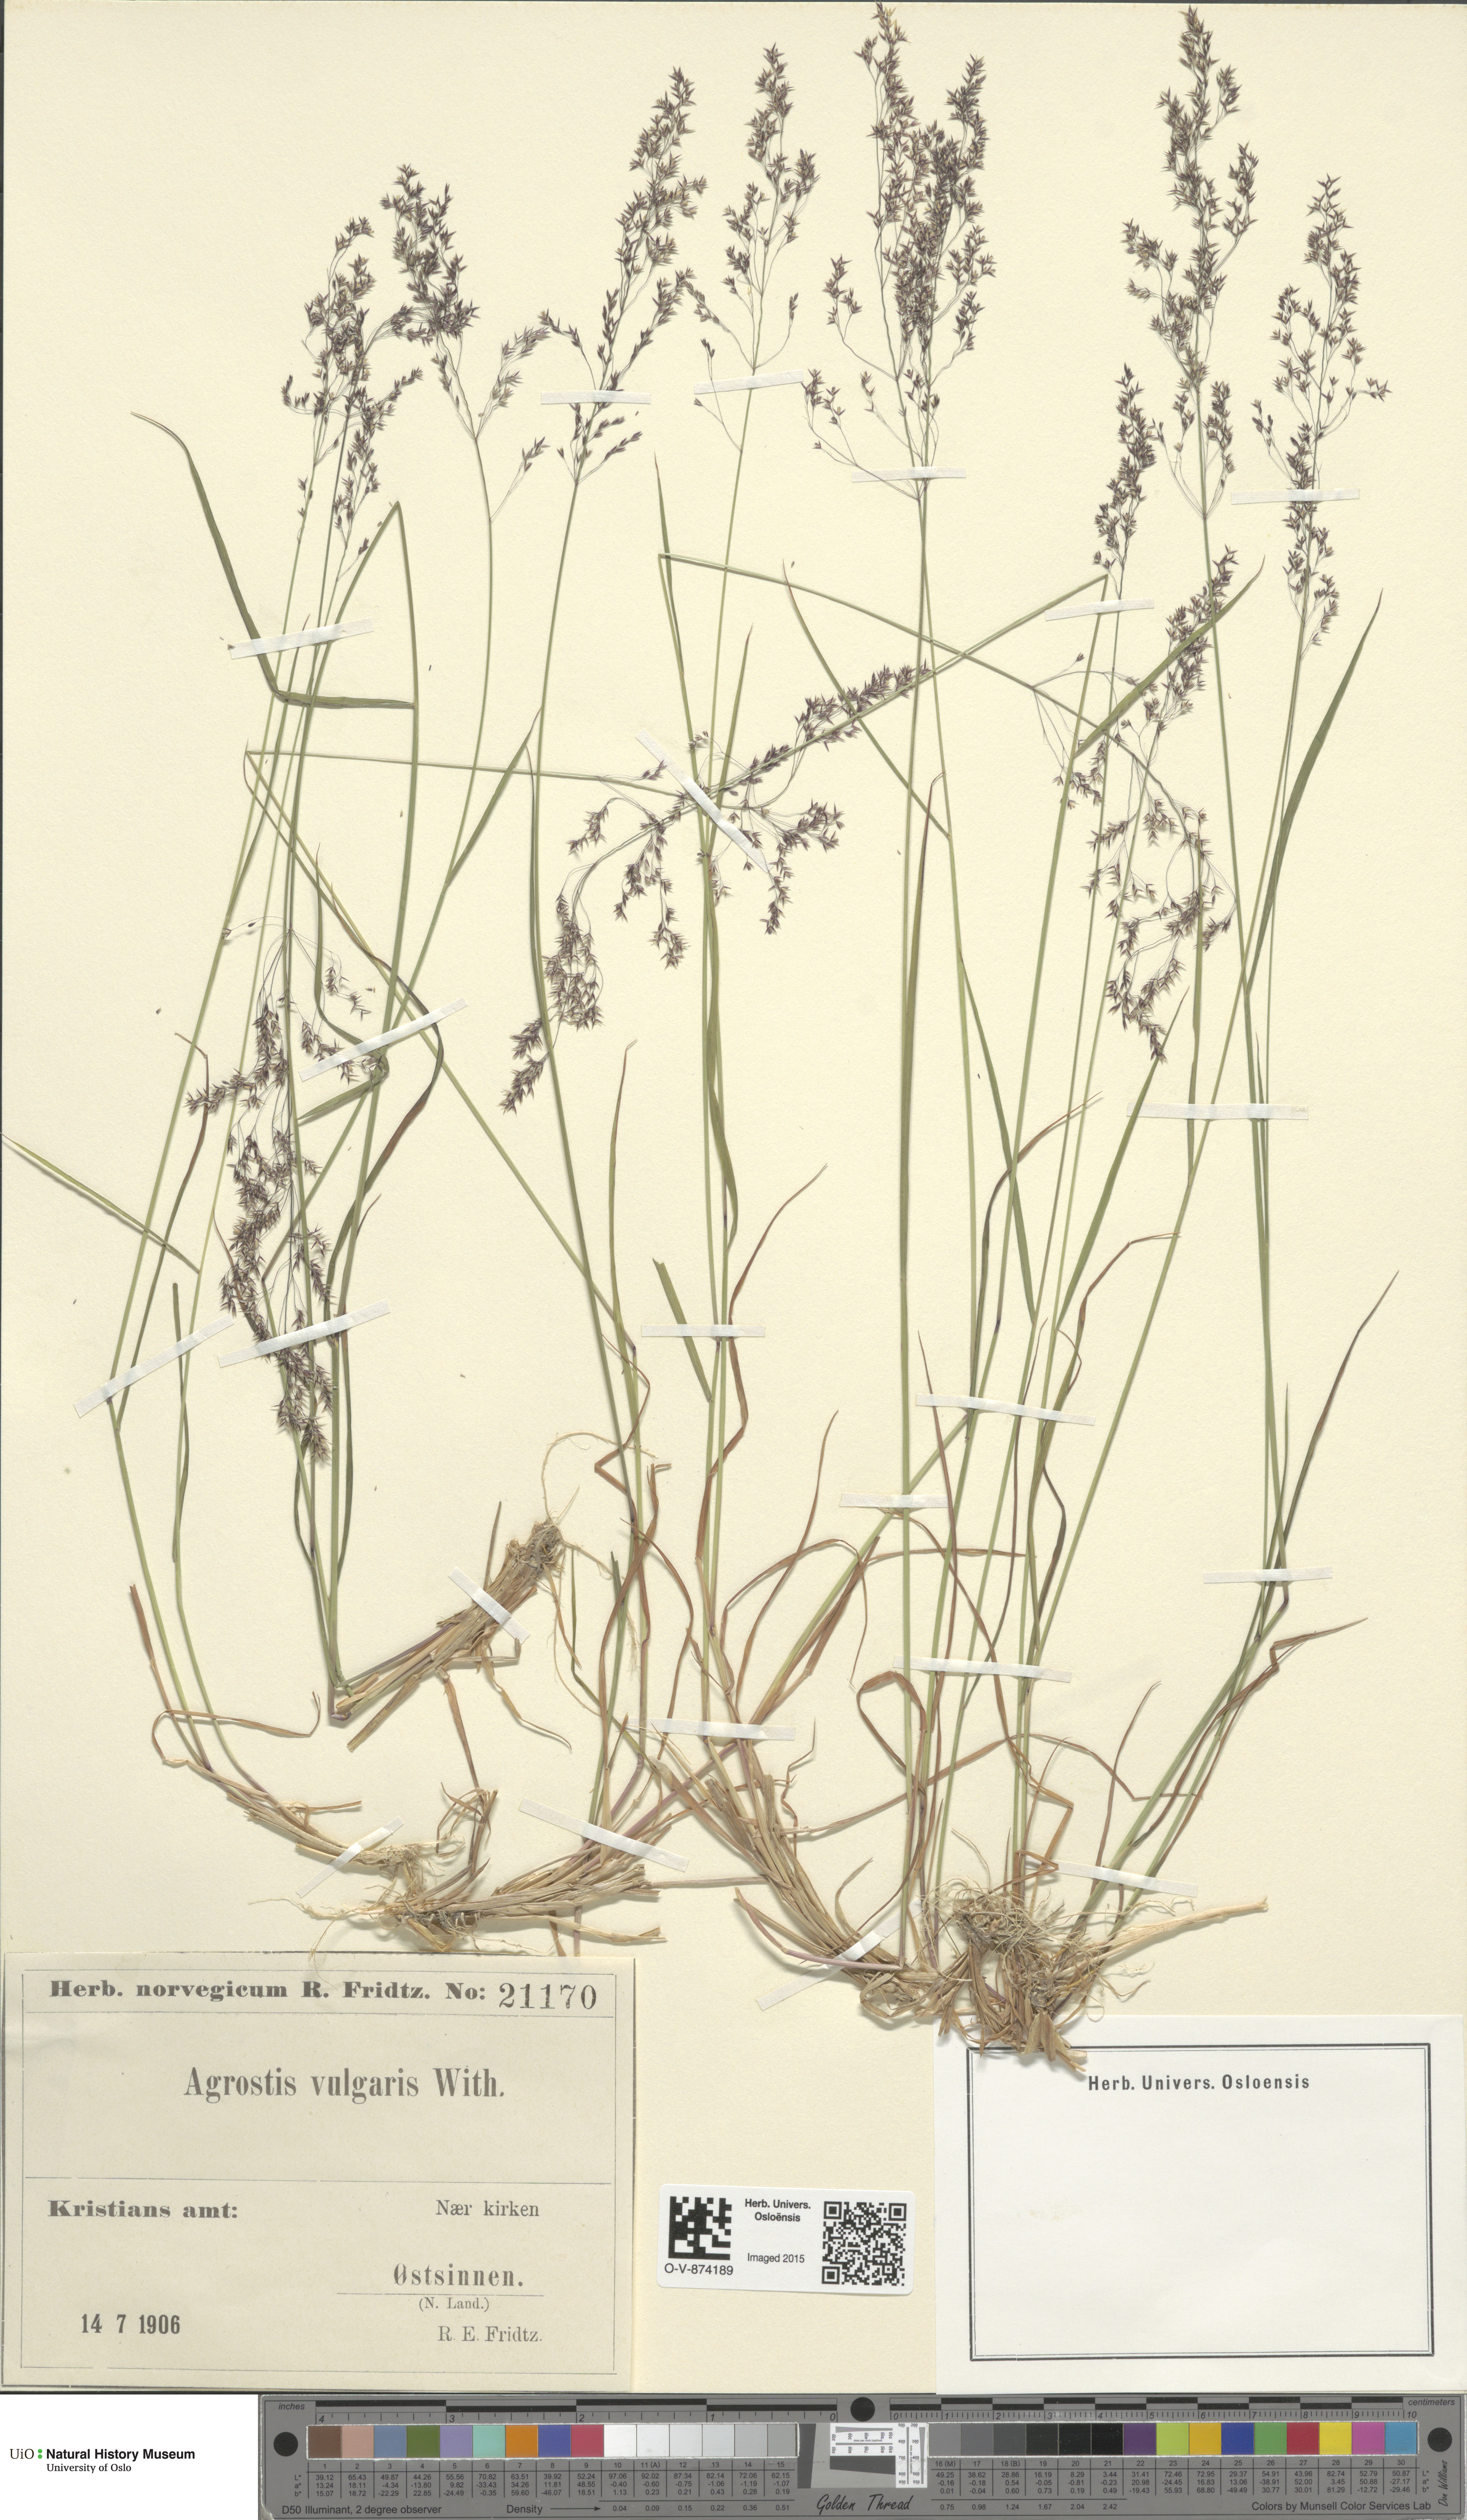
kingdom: Plantae
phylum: Tracheophyta
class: Liliopsida
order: Poales
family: Poaceae
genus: Agrostis
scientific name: Agrostis capillaris
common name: Colonial bentgrass
